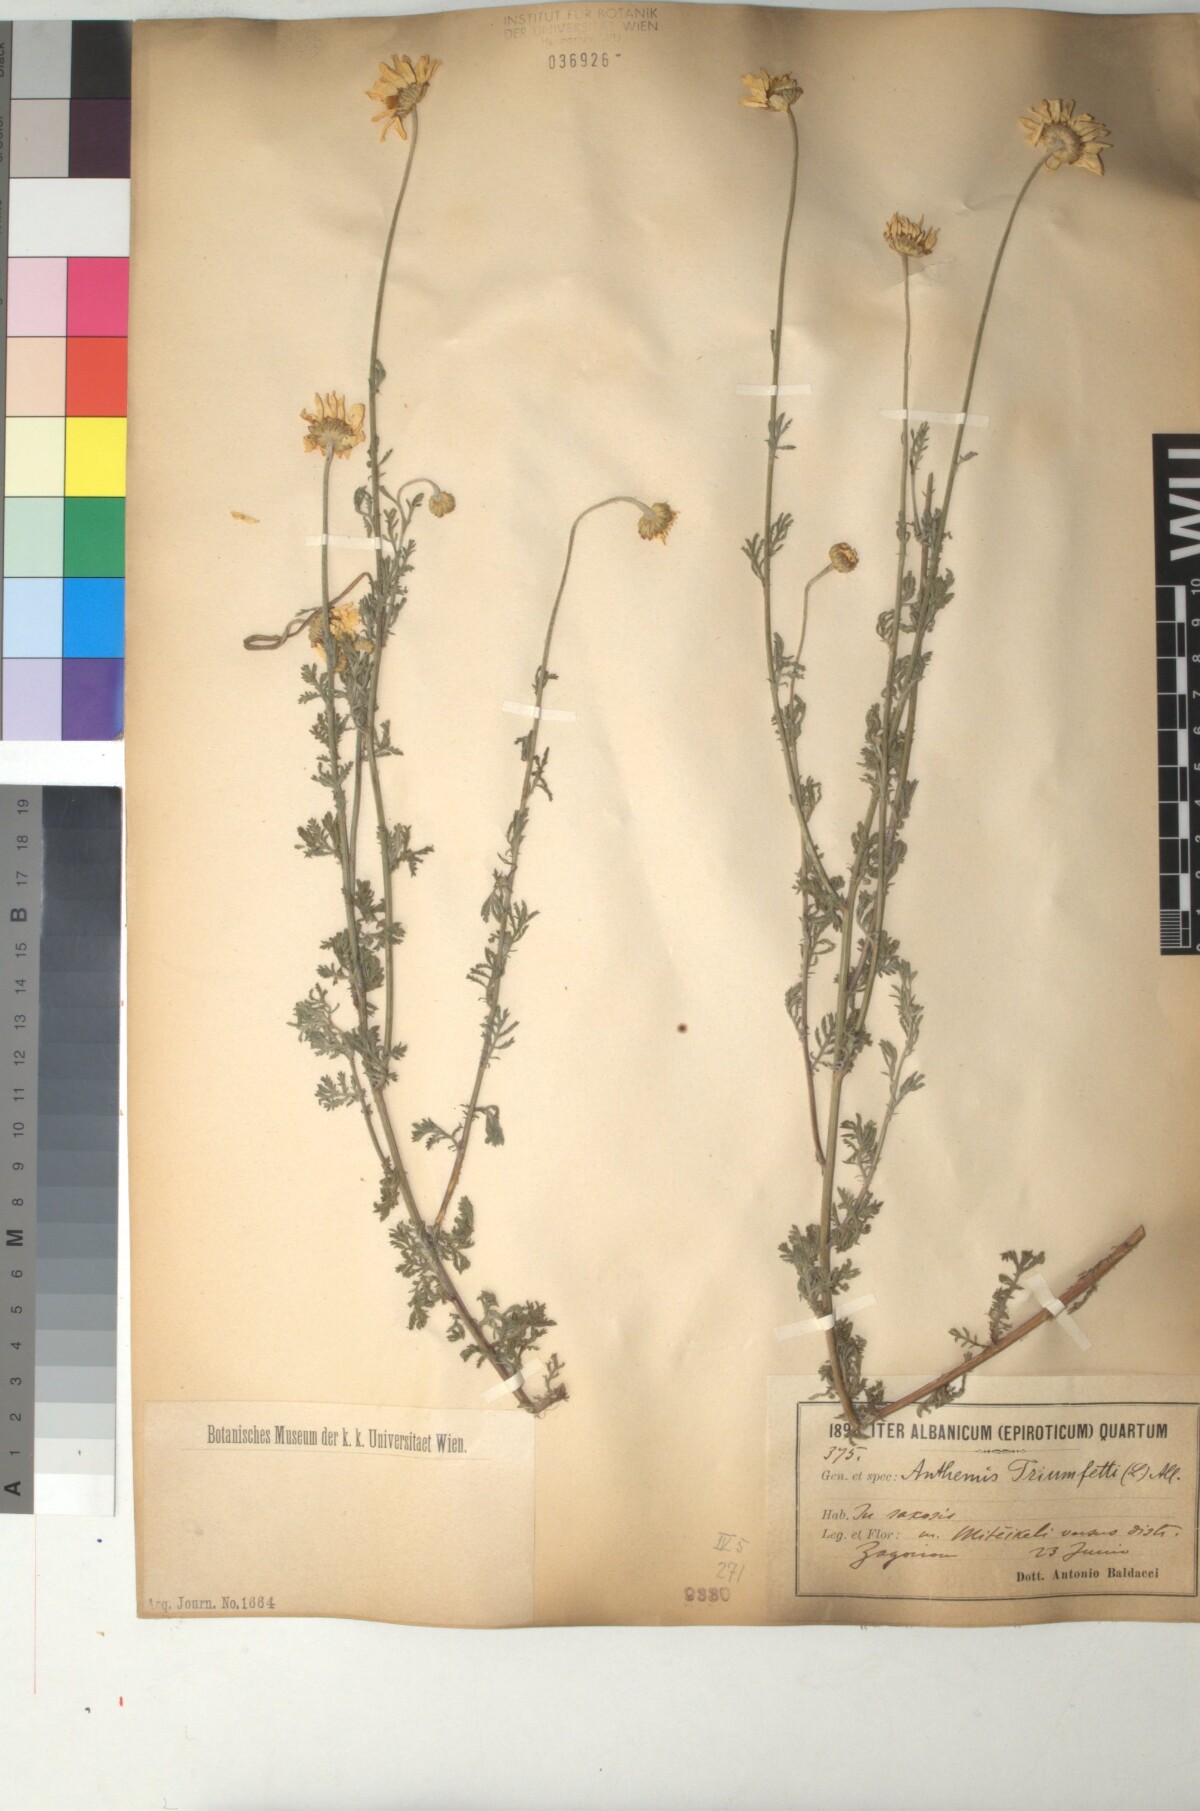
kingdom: Plantae
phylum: Tracheophyta
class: Magnoliopsida
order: Asterales
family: Asteraceae
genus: Cota
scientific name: Cota triumfetti
